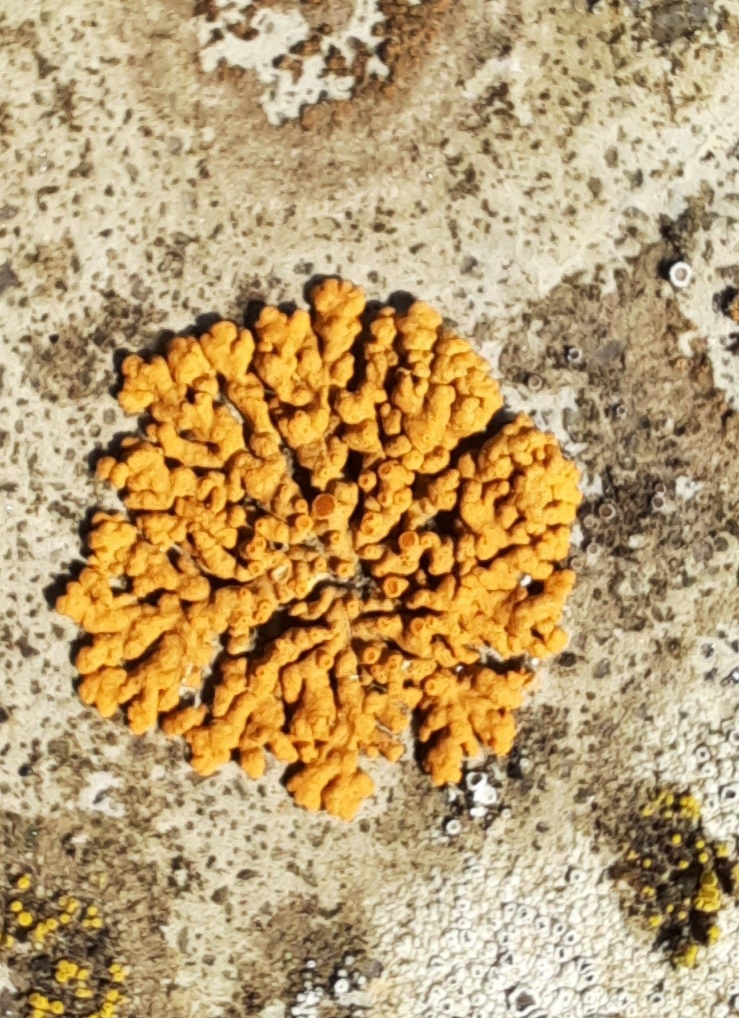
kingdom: Fungi
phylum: Ascomycota
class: Lecanoromycetes
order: Teloschistales
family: Teloschistaceae
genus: Xanthoria
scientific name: Xanthoria elegans
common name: fjeld-væggelav
